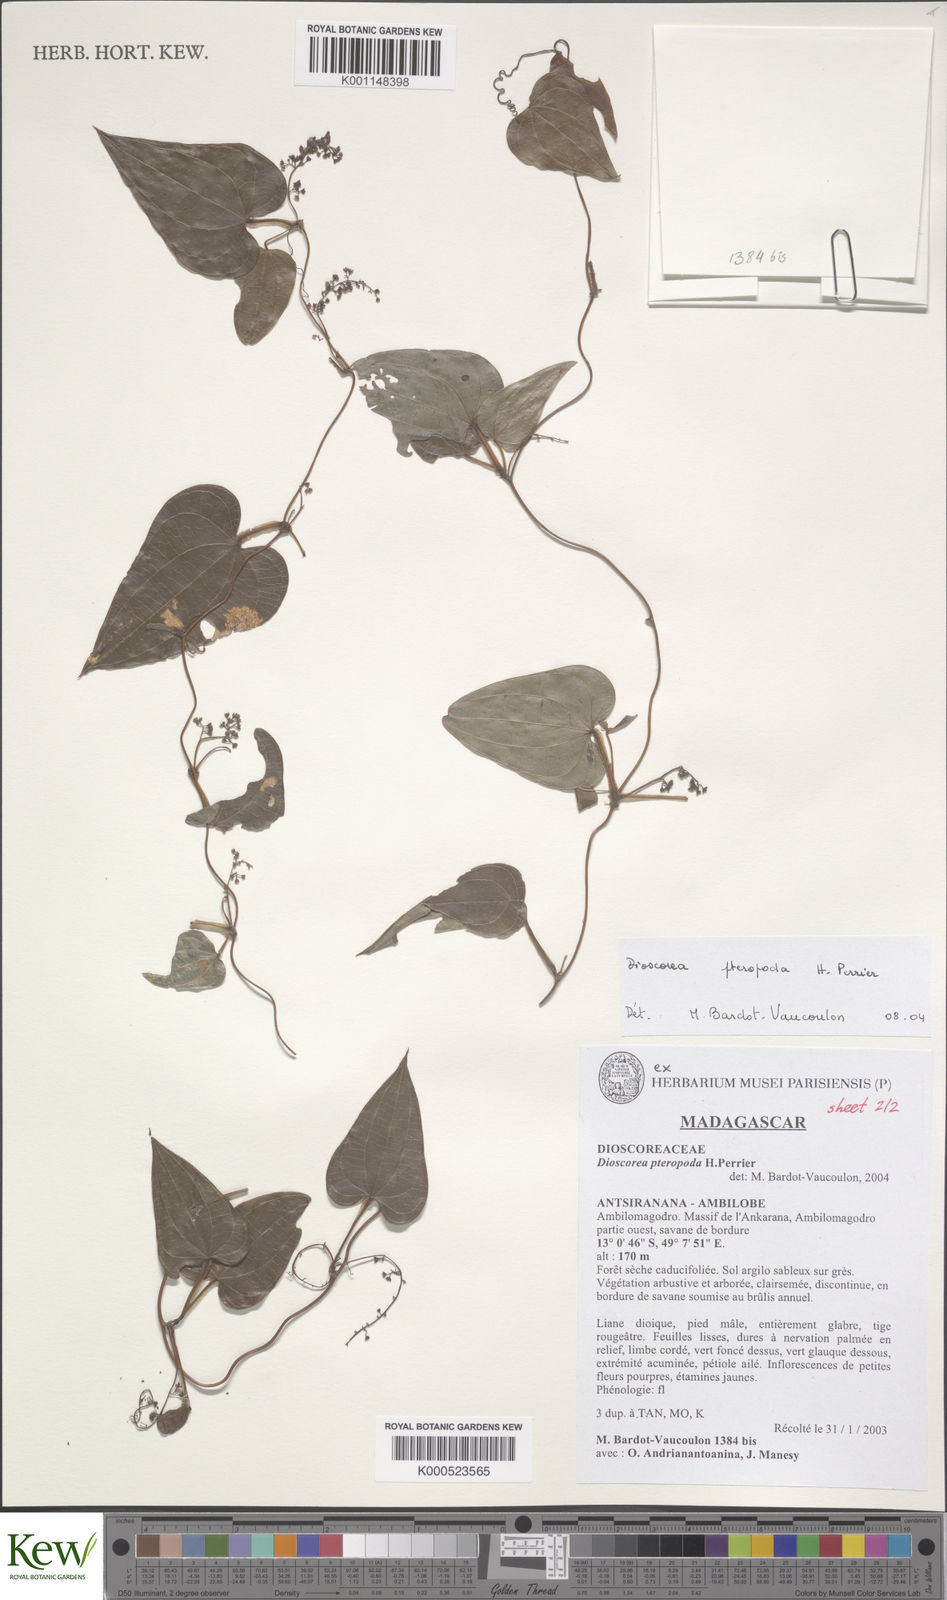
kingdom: Plantae
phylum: Tracheophyta
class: Liliopsida
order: Dioscoreales
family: Dioscoreaceae
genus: Dioscorea
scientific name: Dioscorea pteropoda
